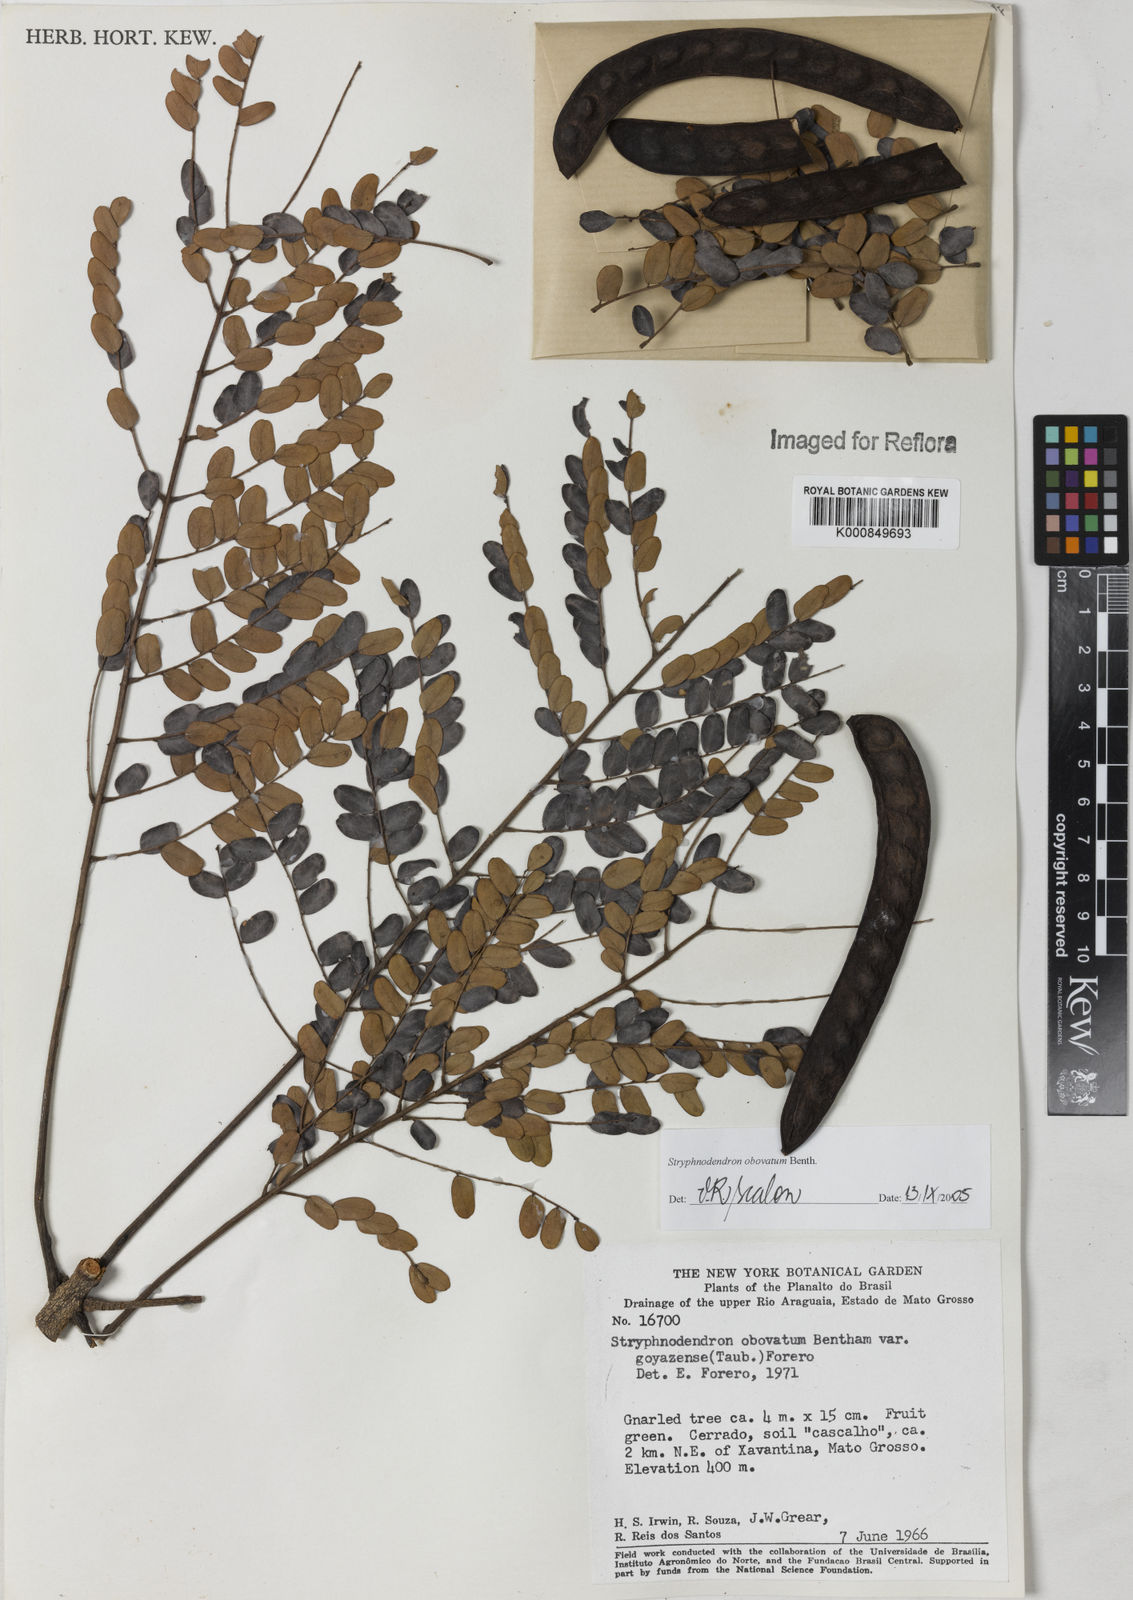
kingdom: Plantae
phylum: Tracheophyta
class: Magnoliopsida
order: Fabales
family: Fabaceae
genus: Stryphnodendron
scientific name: Stryphnodendron rotundifolium
